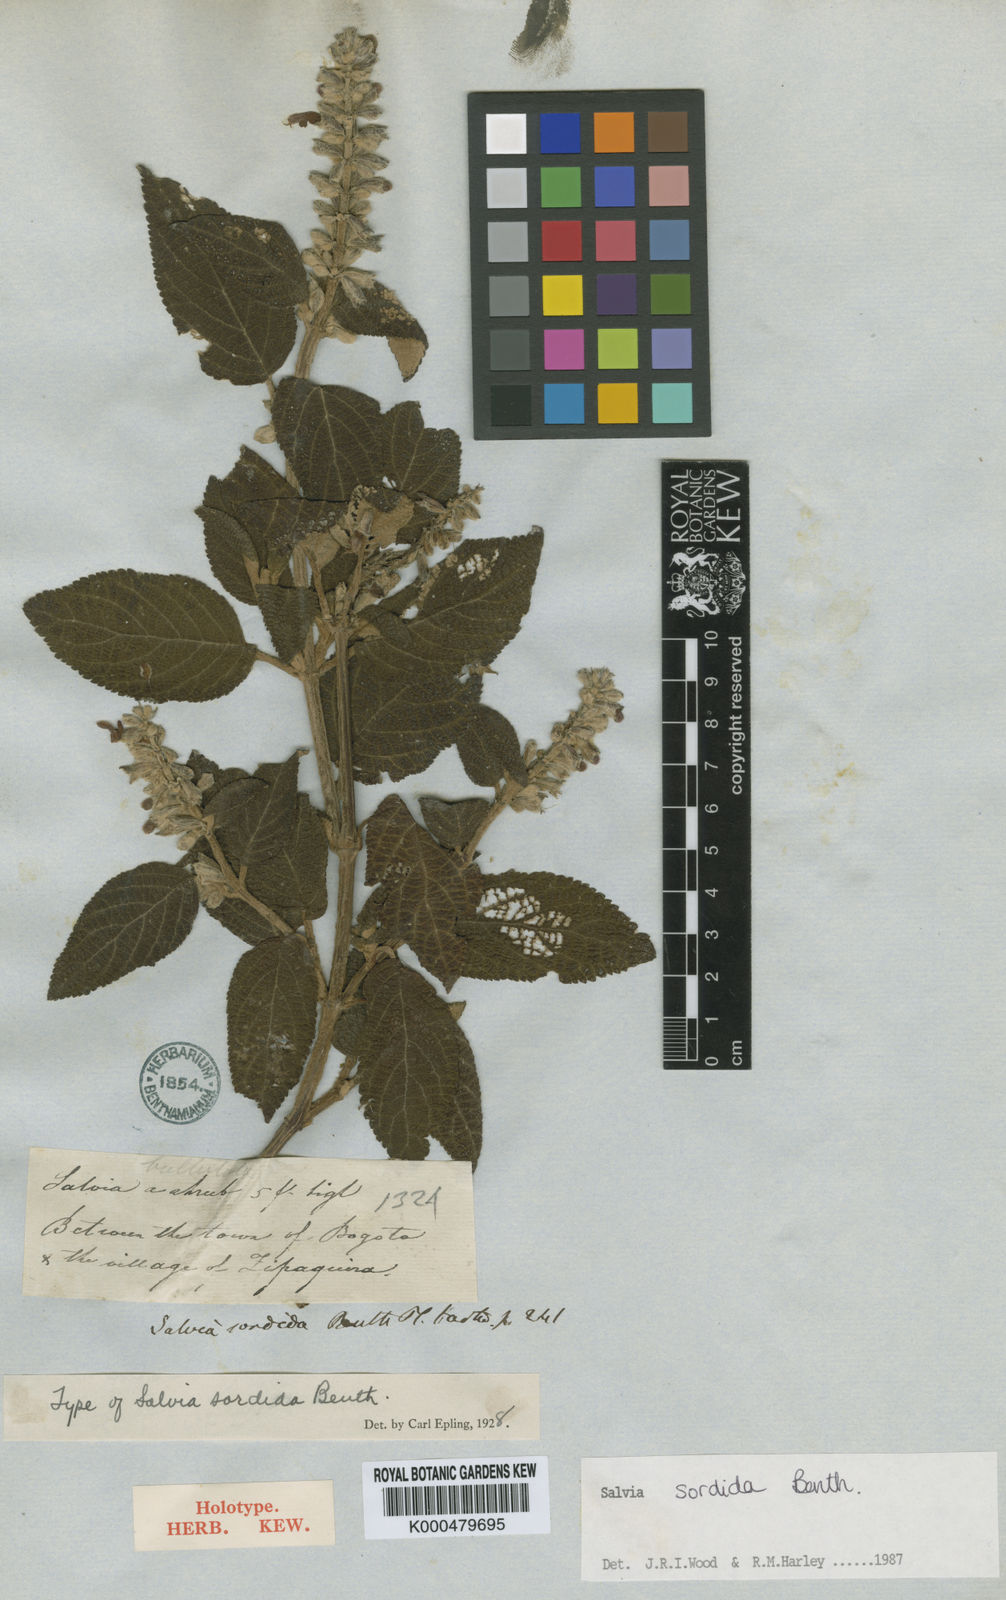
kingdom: Plantae
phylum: Tracheophyta
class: Magnoliopsida
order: Lamiales
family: Lamiaceae
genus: Salvia
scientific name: Salvia sordida
